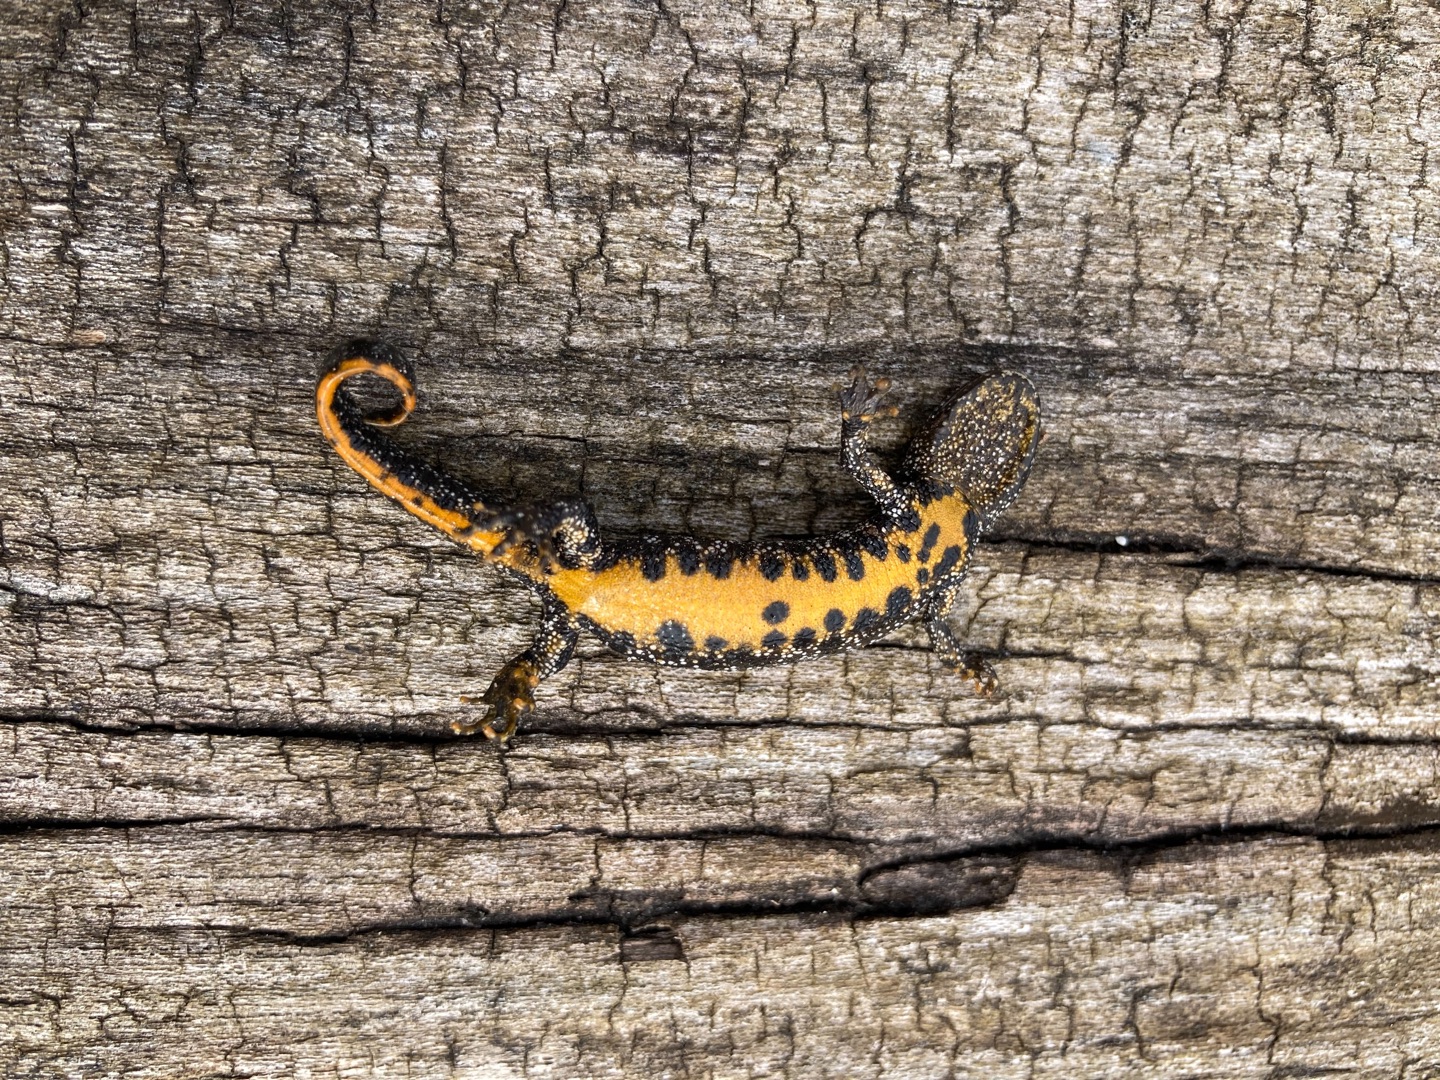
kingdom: Animalia
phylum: Chordata
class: Amphibia
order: Caudata
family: Salamandridae
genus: Triturus
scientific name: Triturus cristatus
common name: Stor vandsalamander
